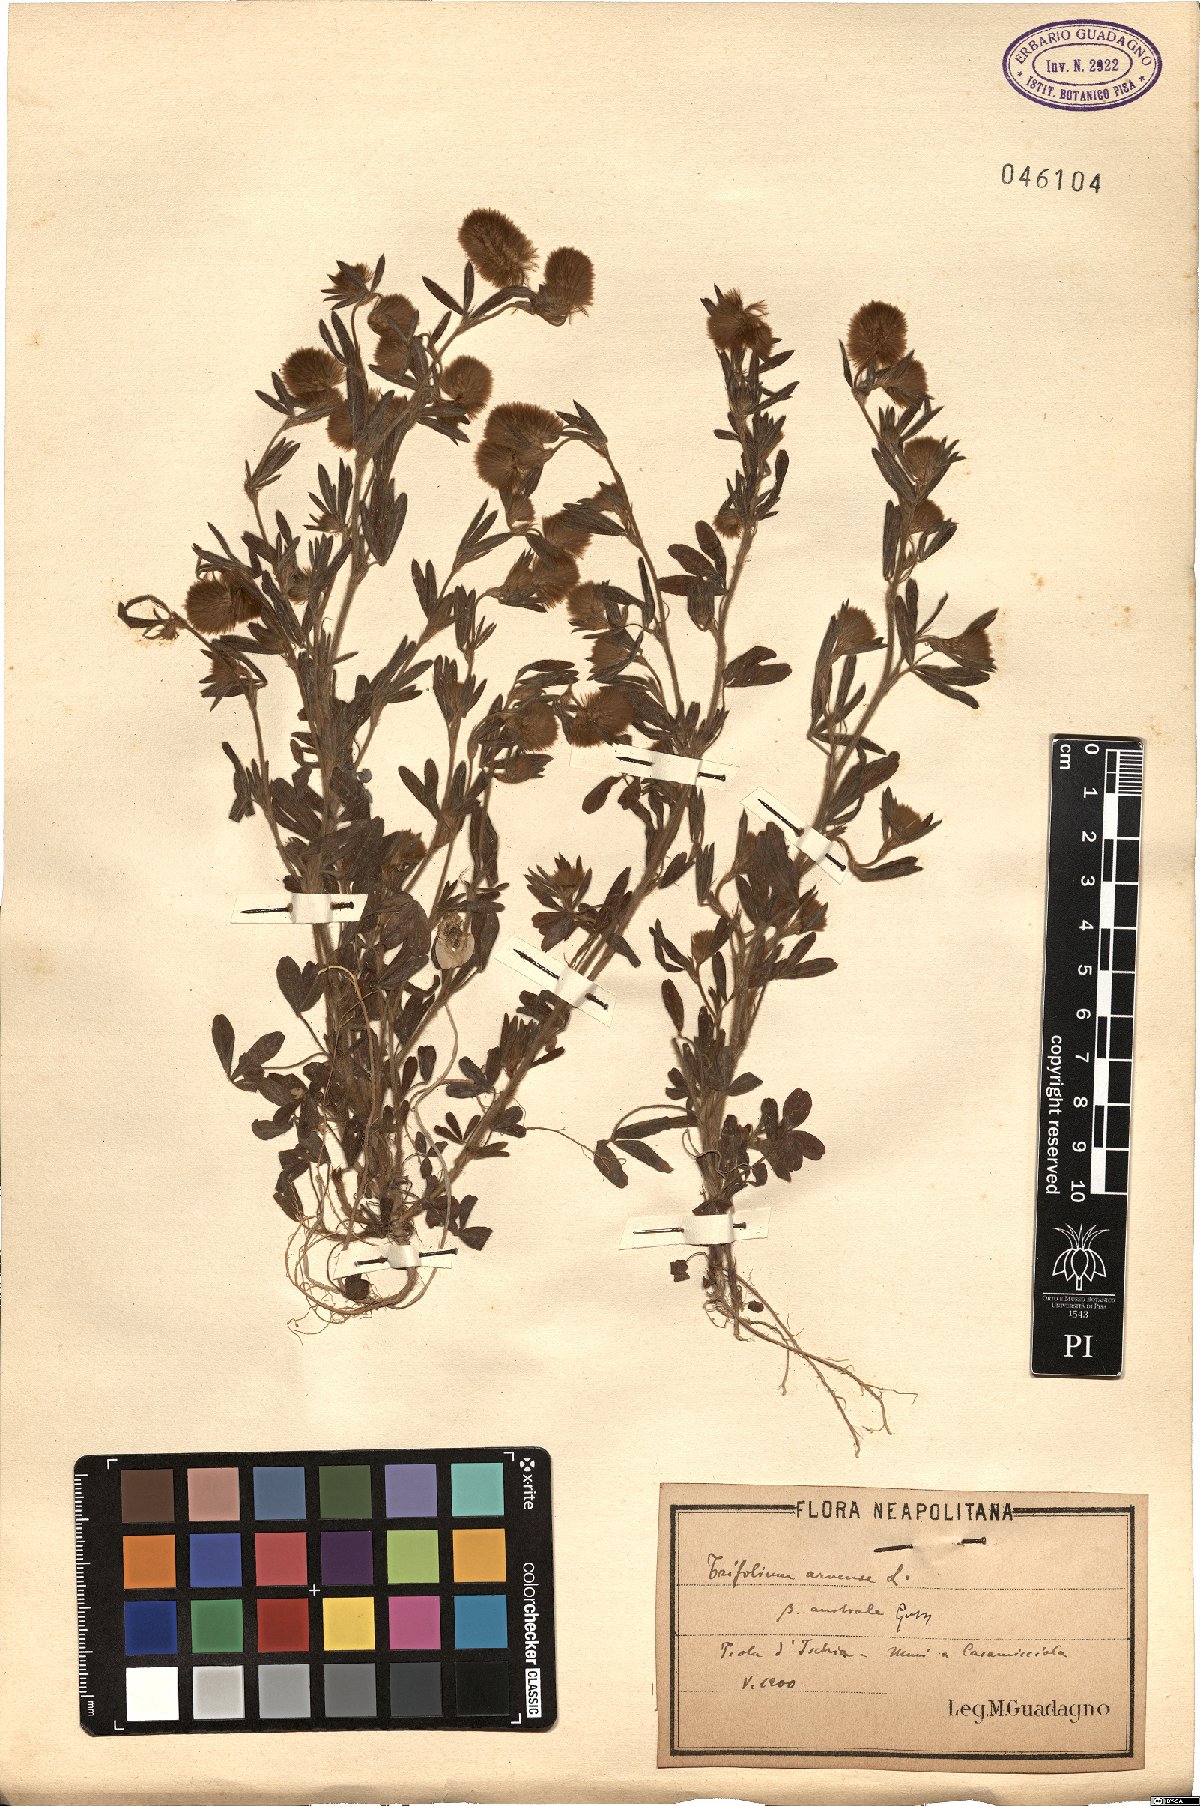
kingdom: Plantae
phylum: Tracheophyta
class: Magnoliopsida
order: Fabales
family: Fabaceae
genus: Trifolium
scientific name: Trifolium arvense
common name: Hare's-foot clover
